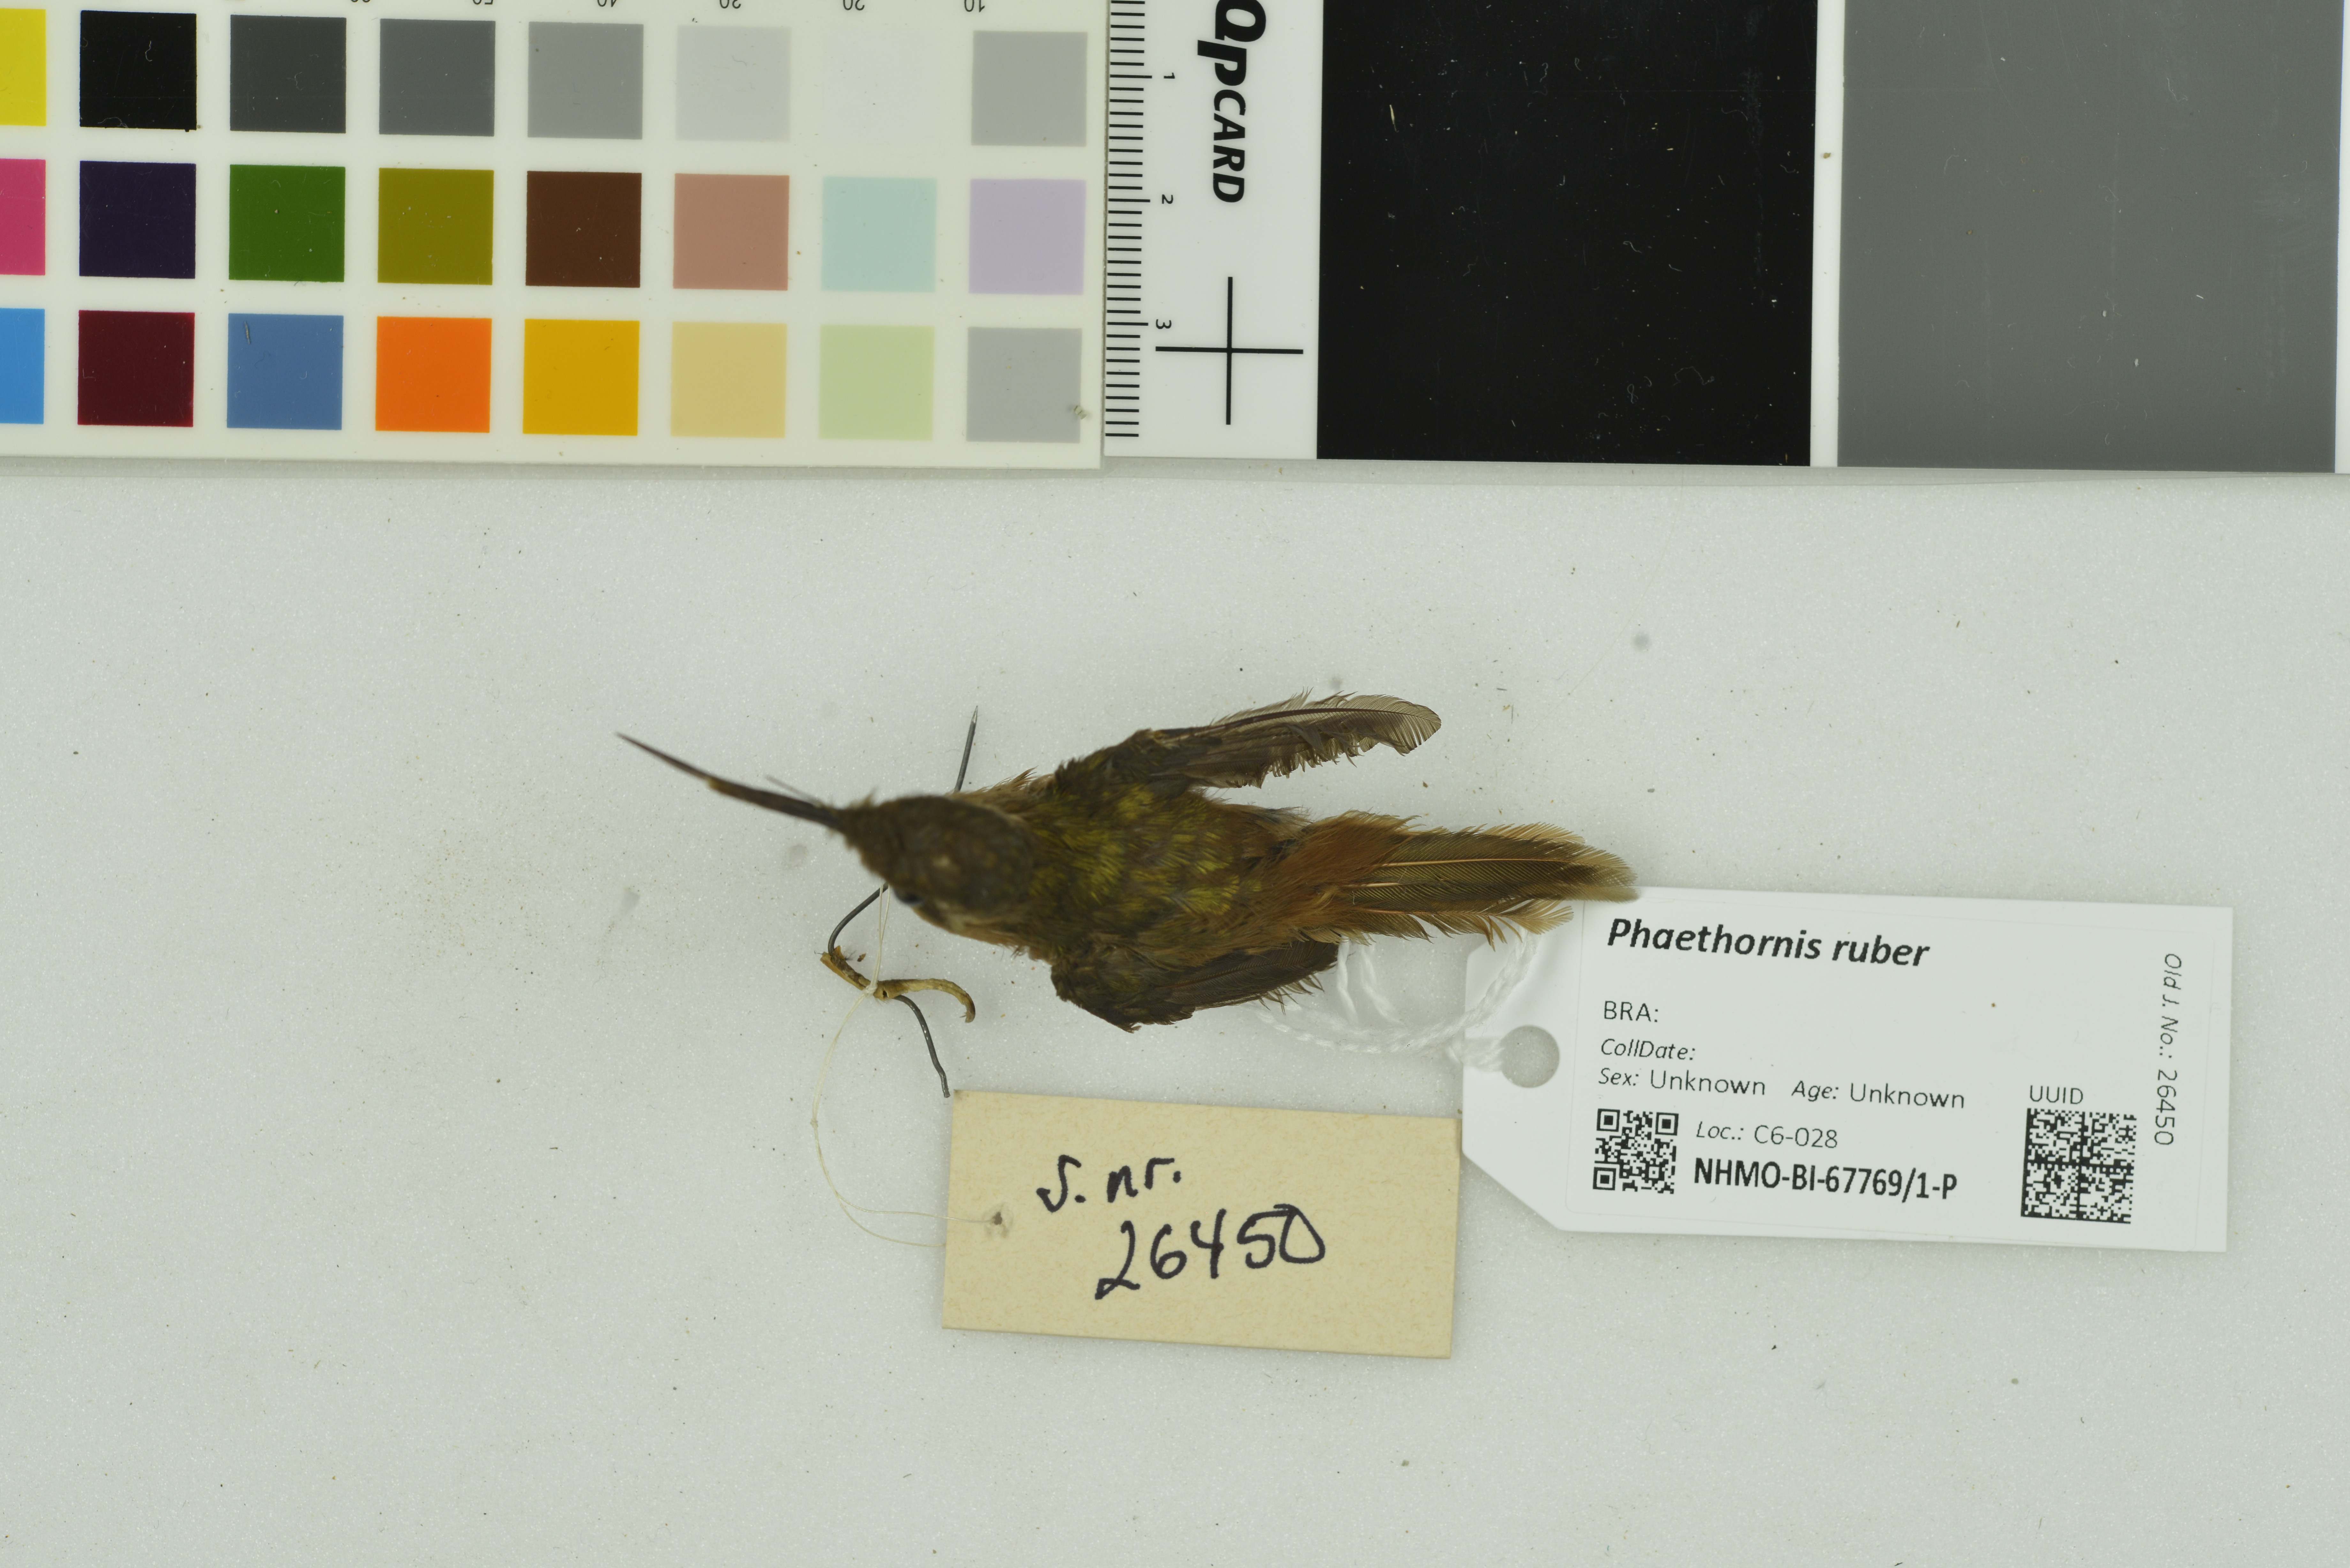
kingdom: Animalia
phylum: Chordata
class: Aves
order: Apodiformes
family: Trochilidae
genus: Phaethornis
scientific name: Phaethornis ruber
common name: Reddish hermit
